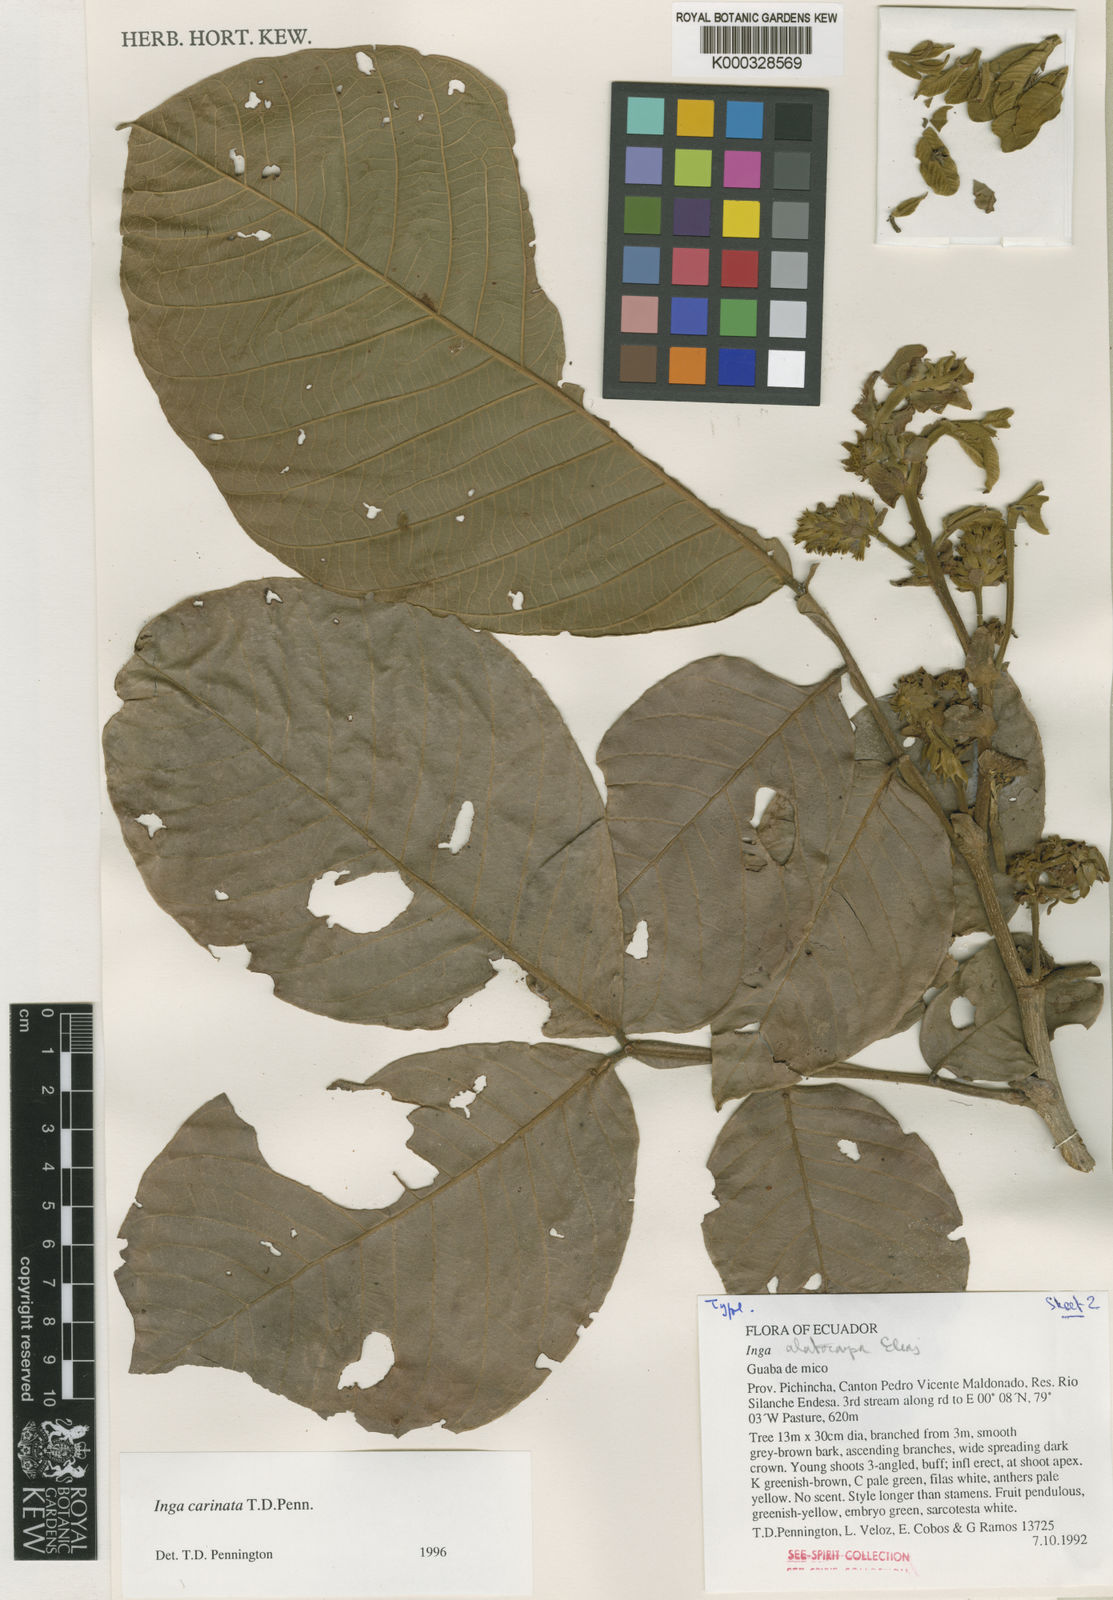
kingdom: Plantae
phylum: Tracheophyta
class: Magnoliopsida
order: Fabales
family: Fabaceae
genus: Inga
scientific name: Inga carinata
